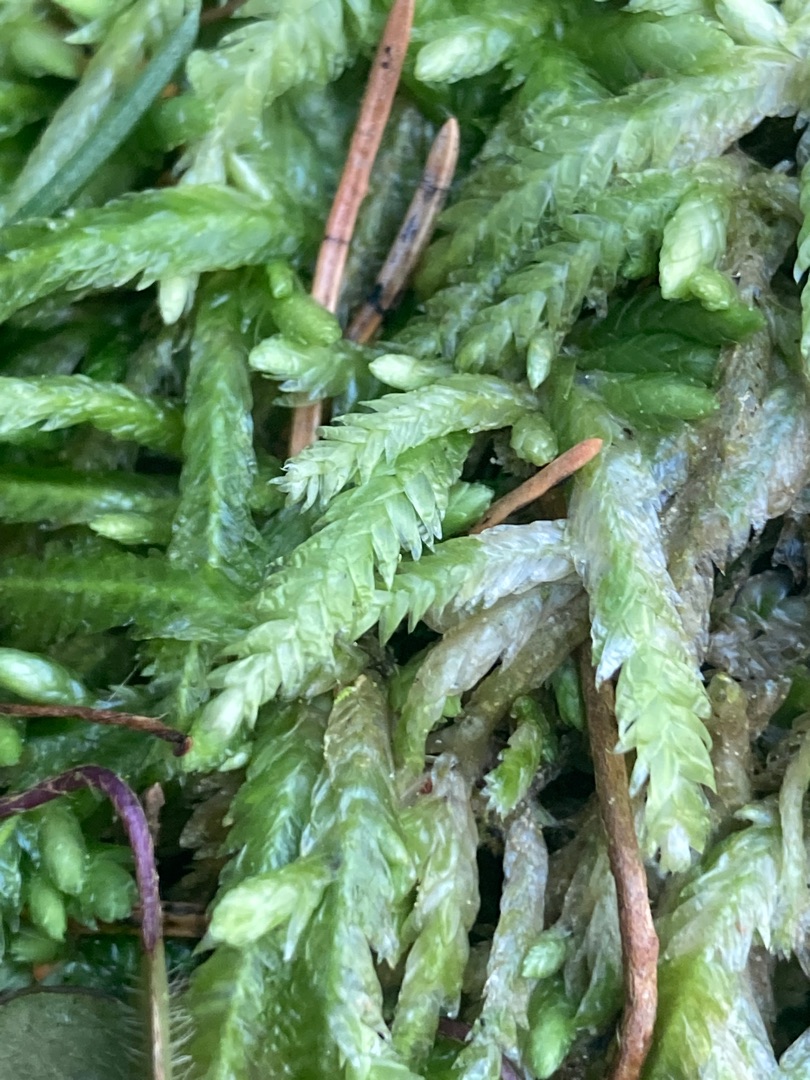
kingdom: Plantae
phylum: Bryophyta
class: Bryopsida
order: Hypnales
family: Plagiotheciaceae
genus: Plagiothecium
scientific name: Plagiothecium undulatum
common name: Bølget tæppemos
